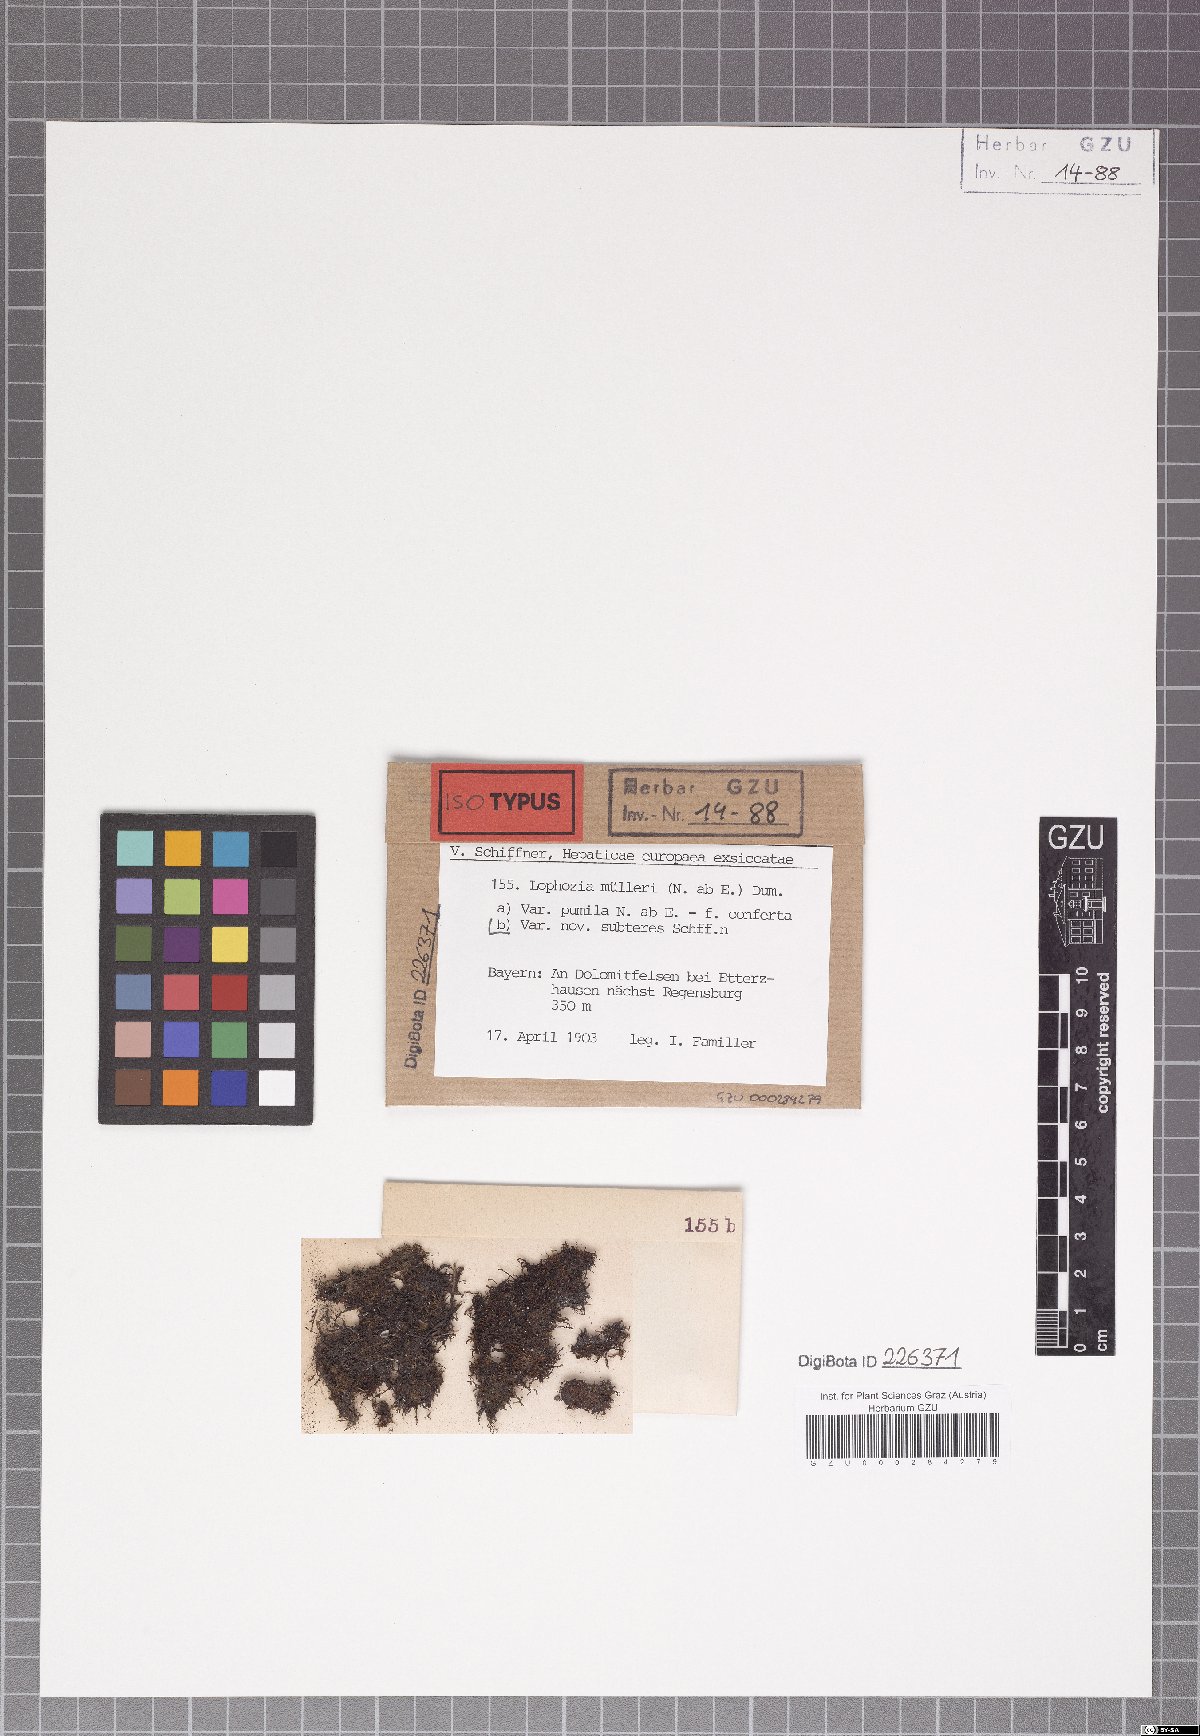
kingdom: Plantae
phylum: Marchantiophyta
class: Jungermanniopsida
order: Jungermanniales
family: Jungermanniaceae
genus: Mesoptychia
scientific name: Mesoptychia collaris
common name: Collared notchwort
